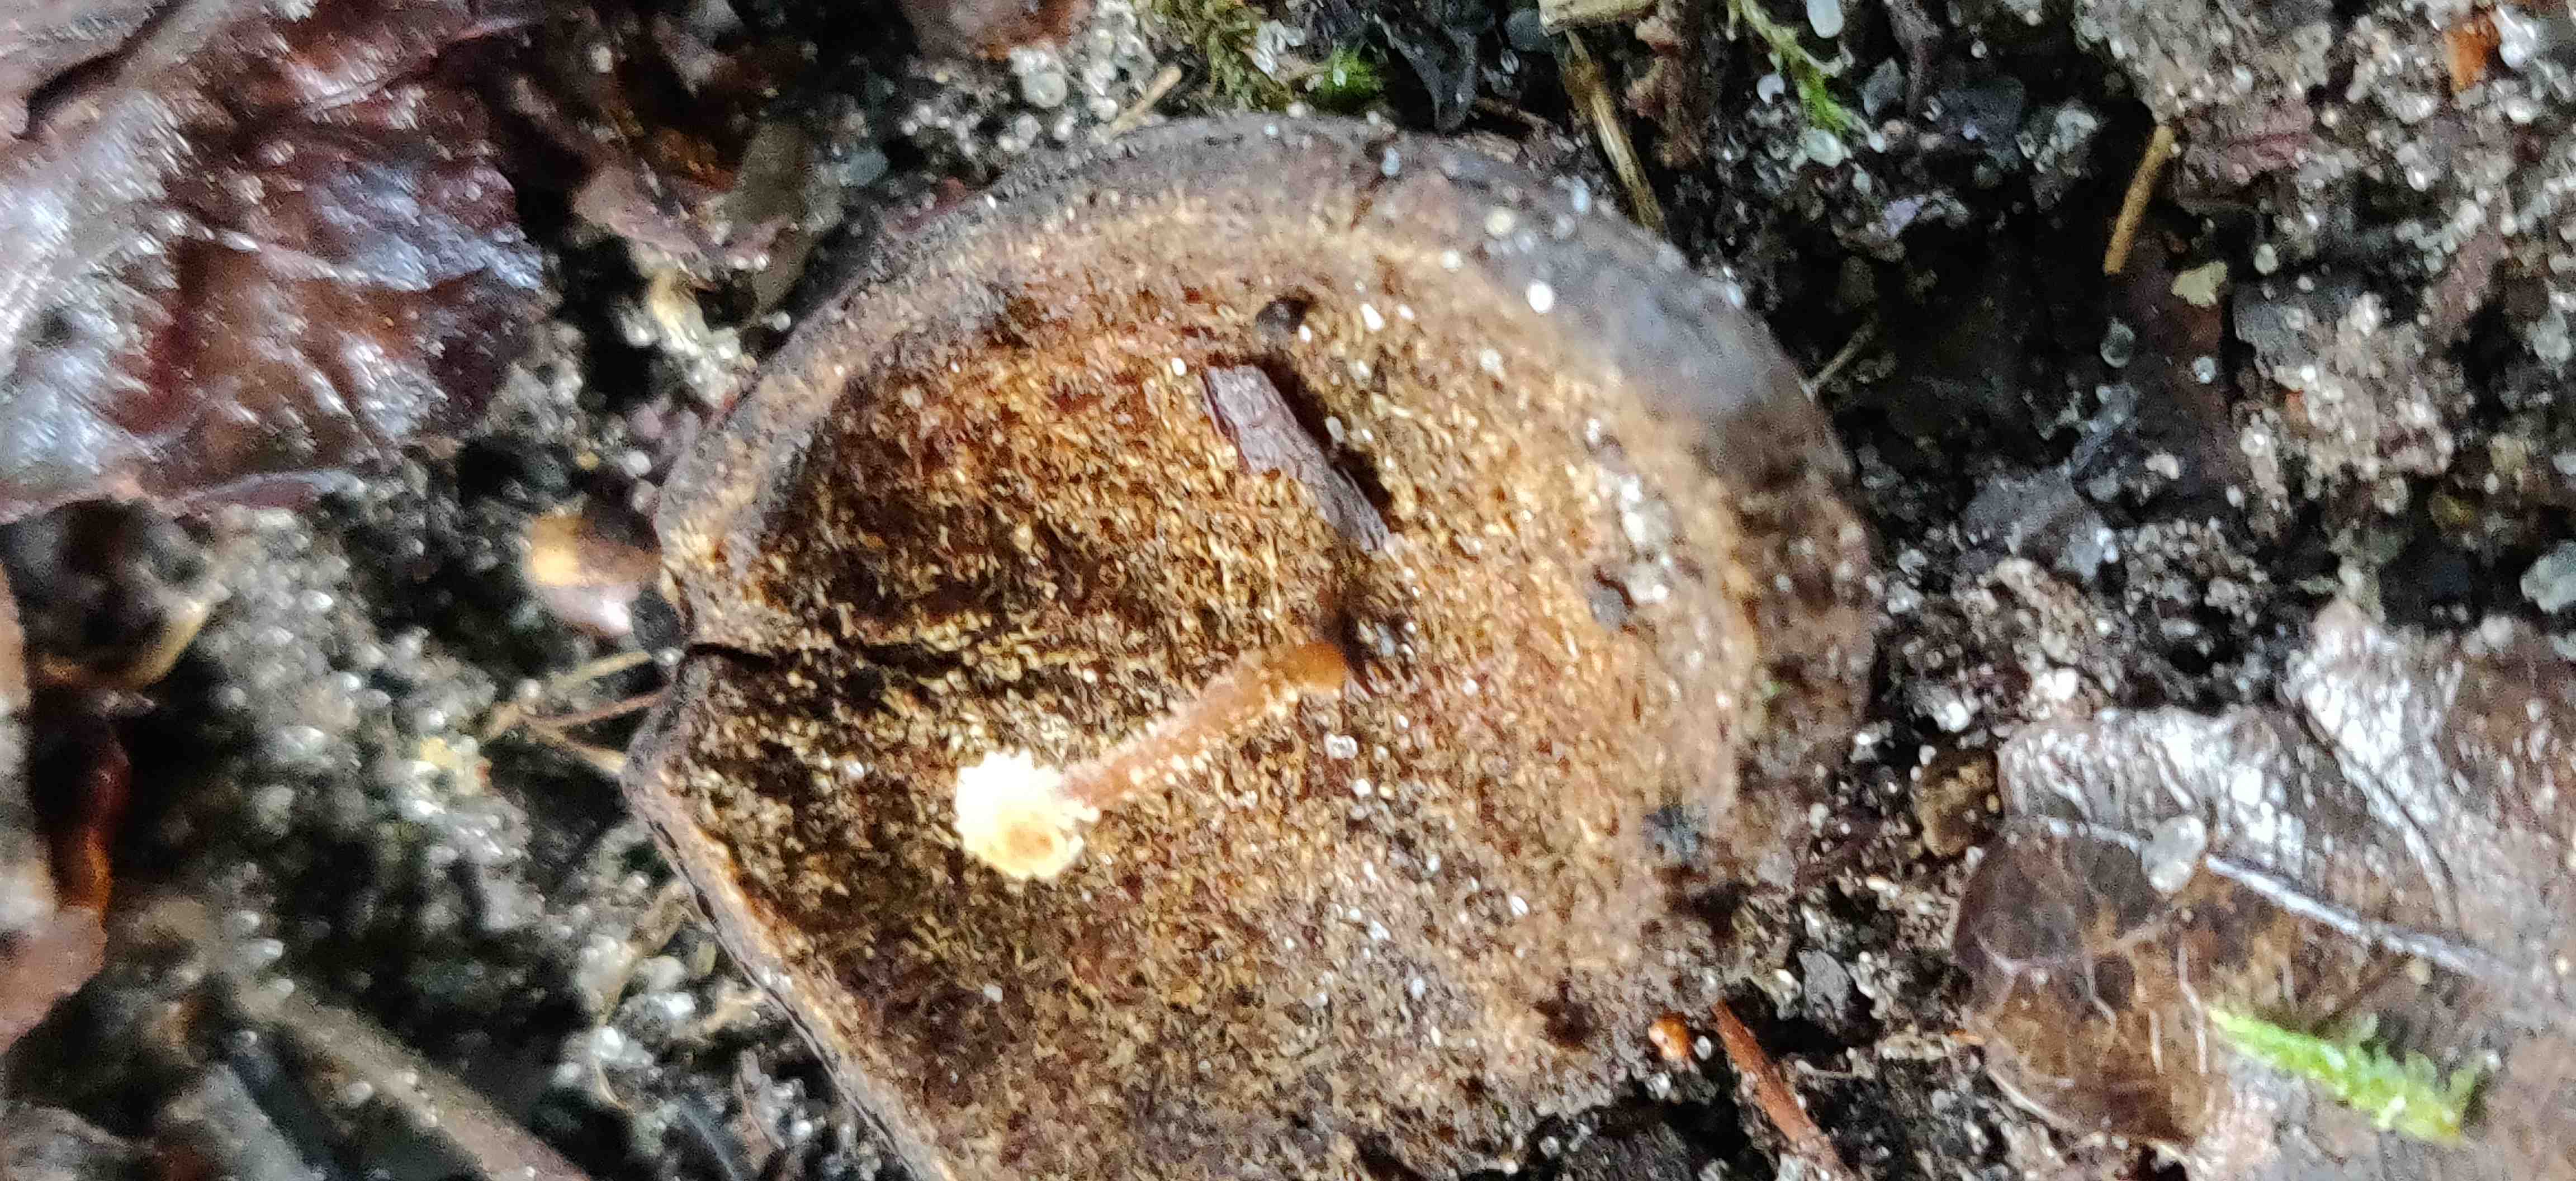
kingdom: Fungi
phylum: Basidiomycota
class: Agaricomycetes
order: Agaricales
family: Tubariaceae
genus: Flammulaster
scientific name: Flammulaster
